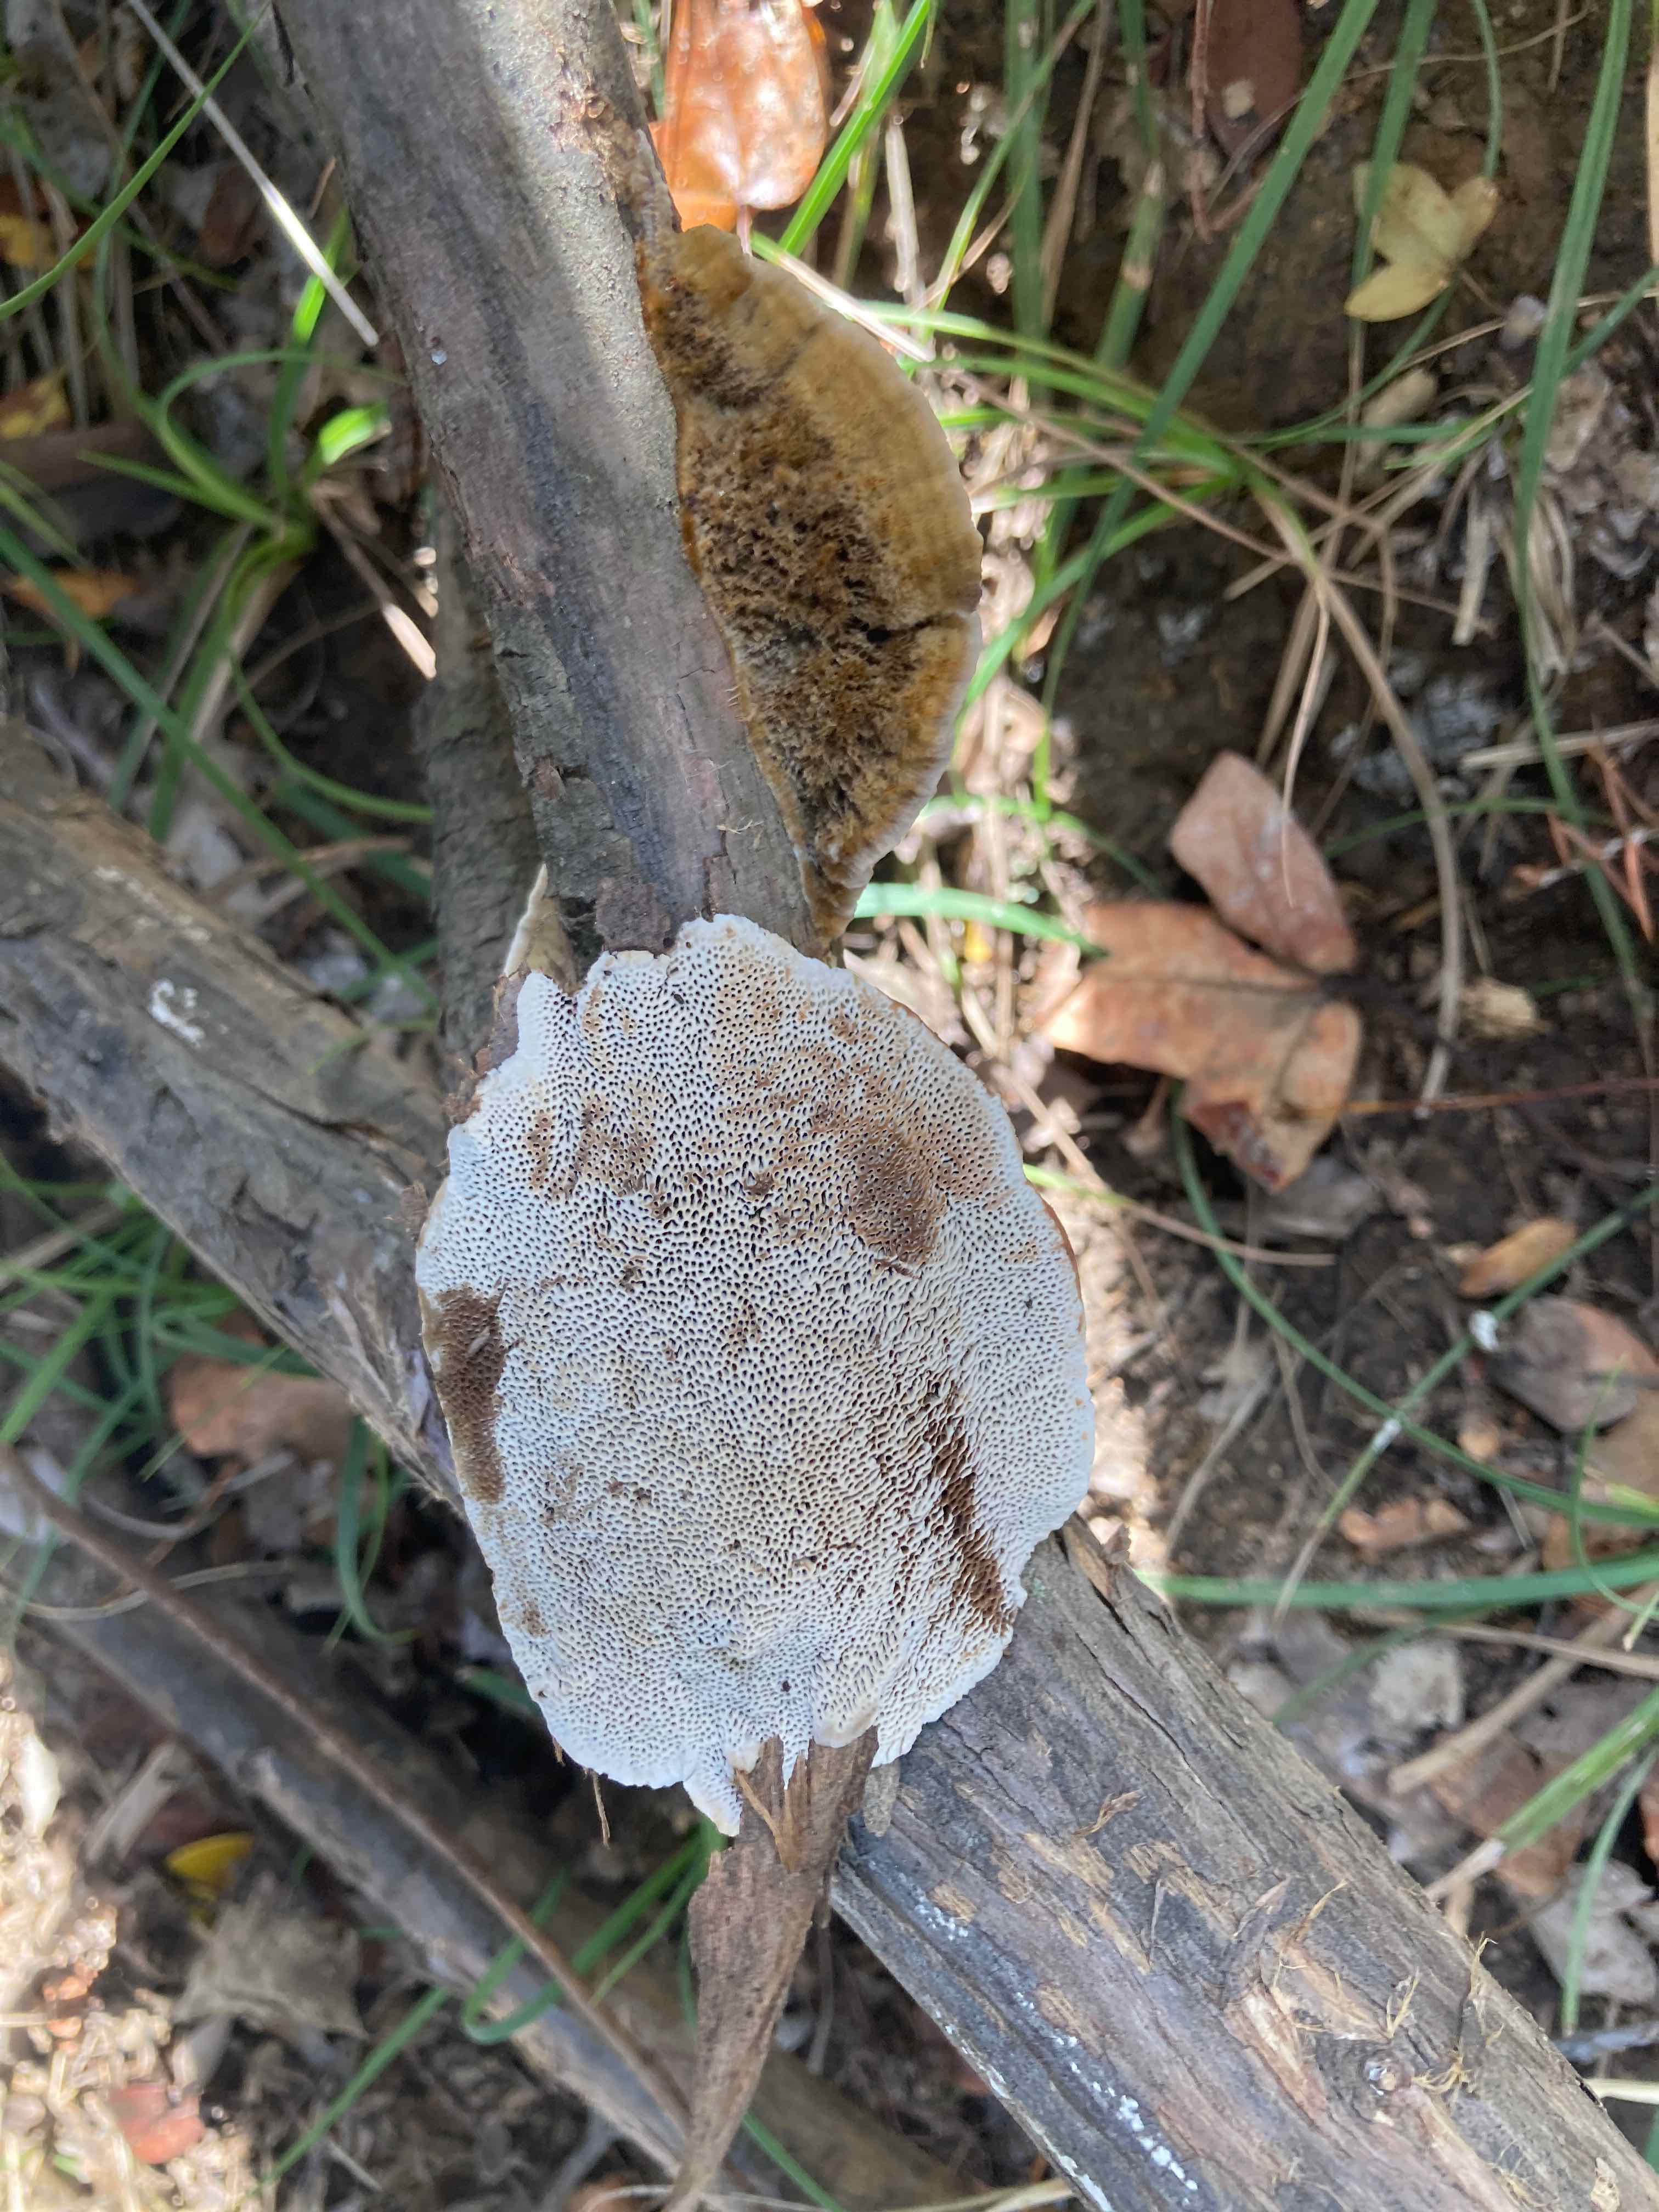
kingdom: Fungi
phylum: Basidiomycota
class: Agaricomycetes
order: Polyporales
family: Polyporaceae
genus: Funalia
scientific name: Funalia
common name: filtporesvamp
